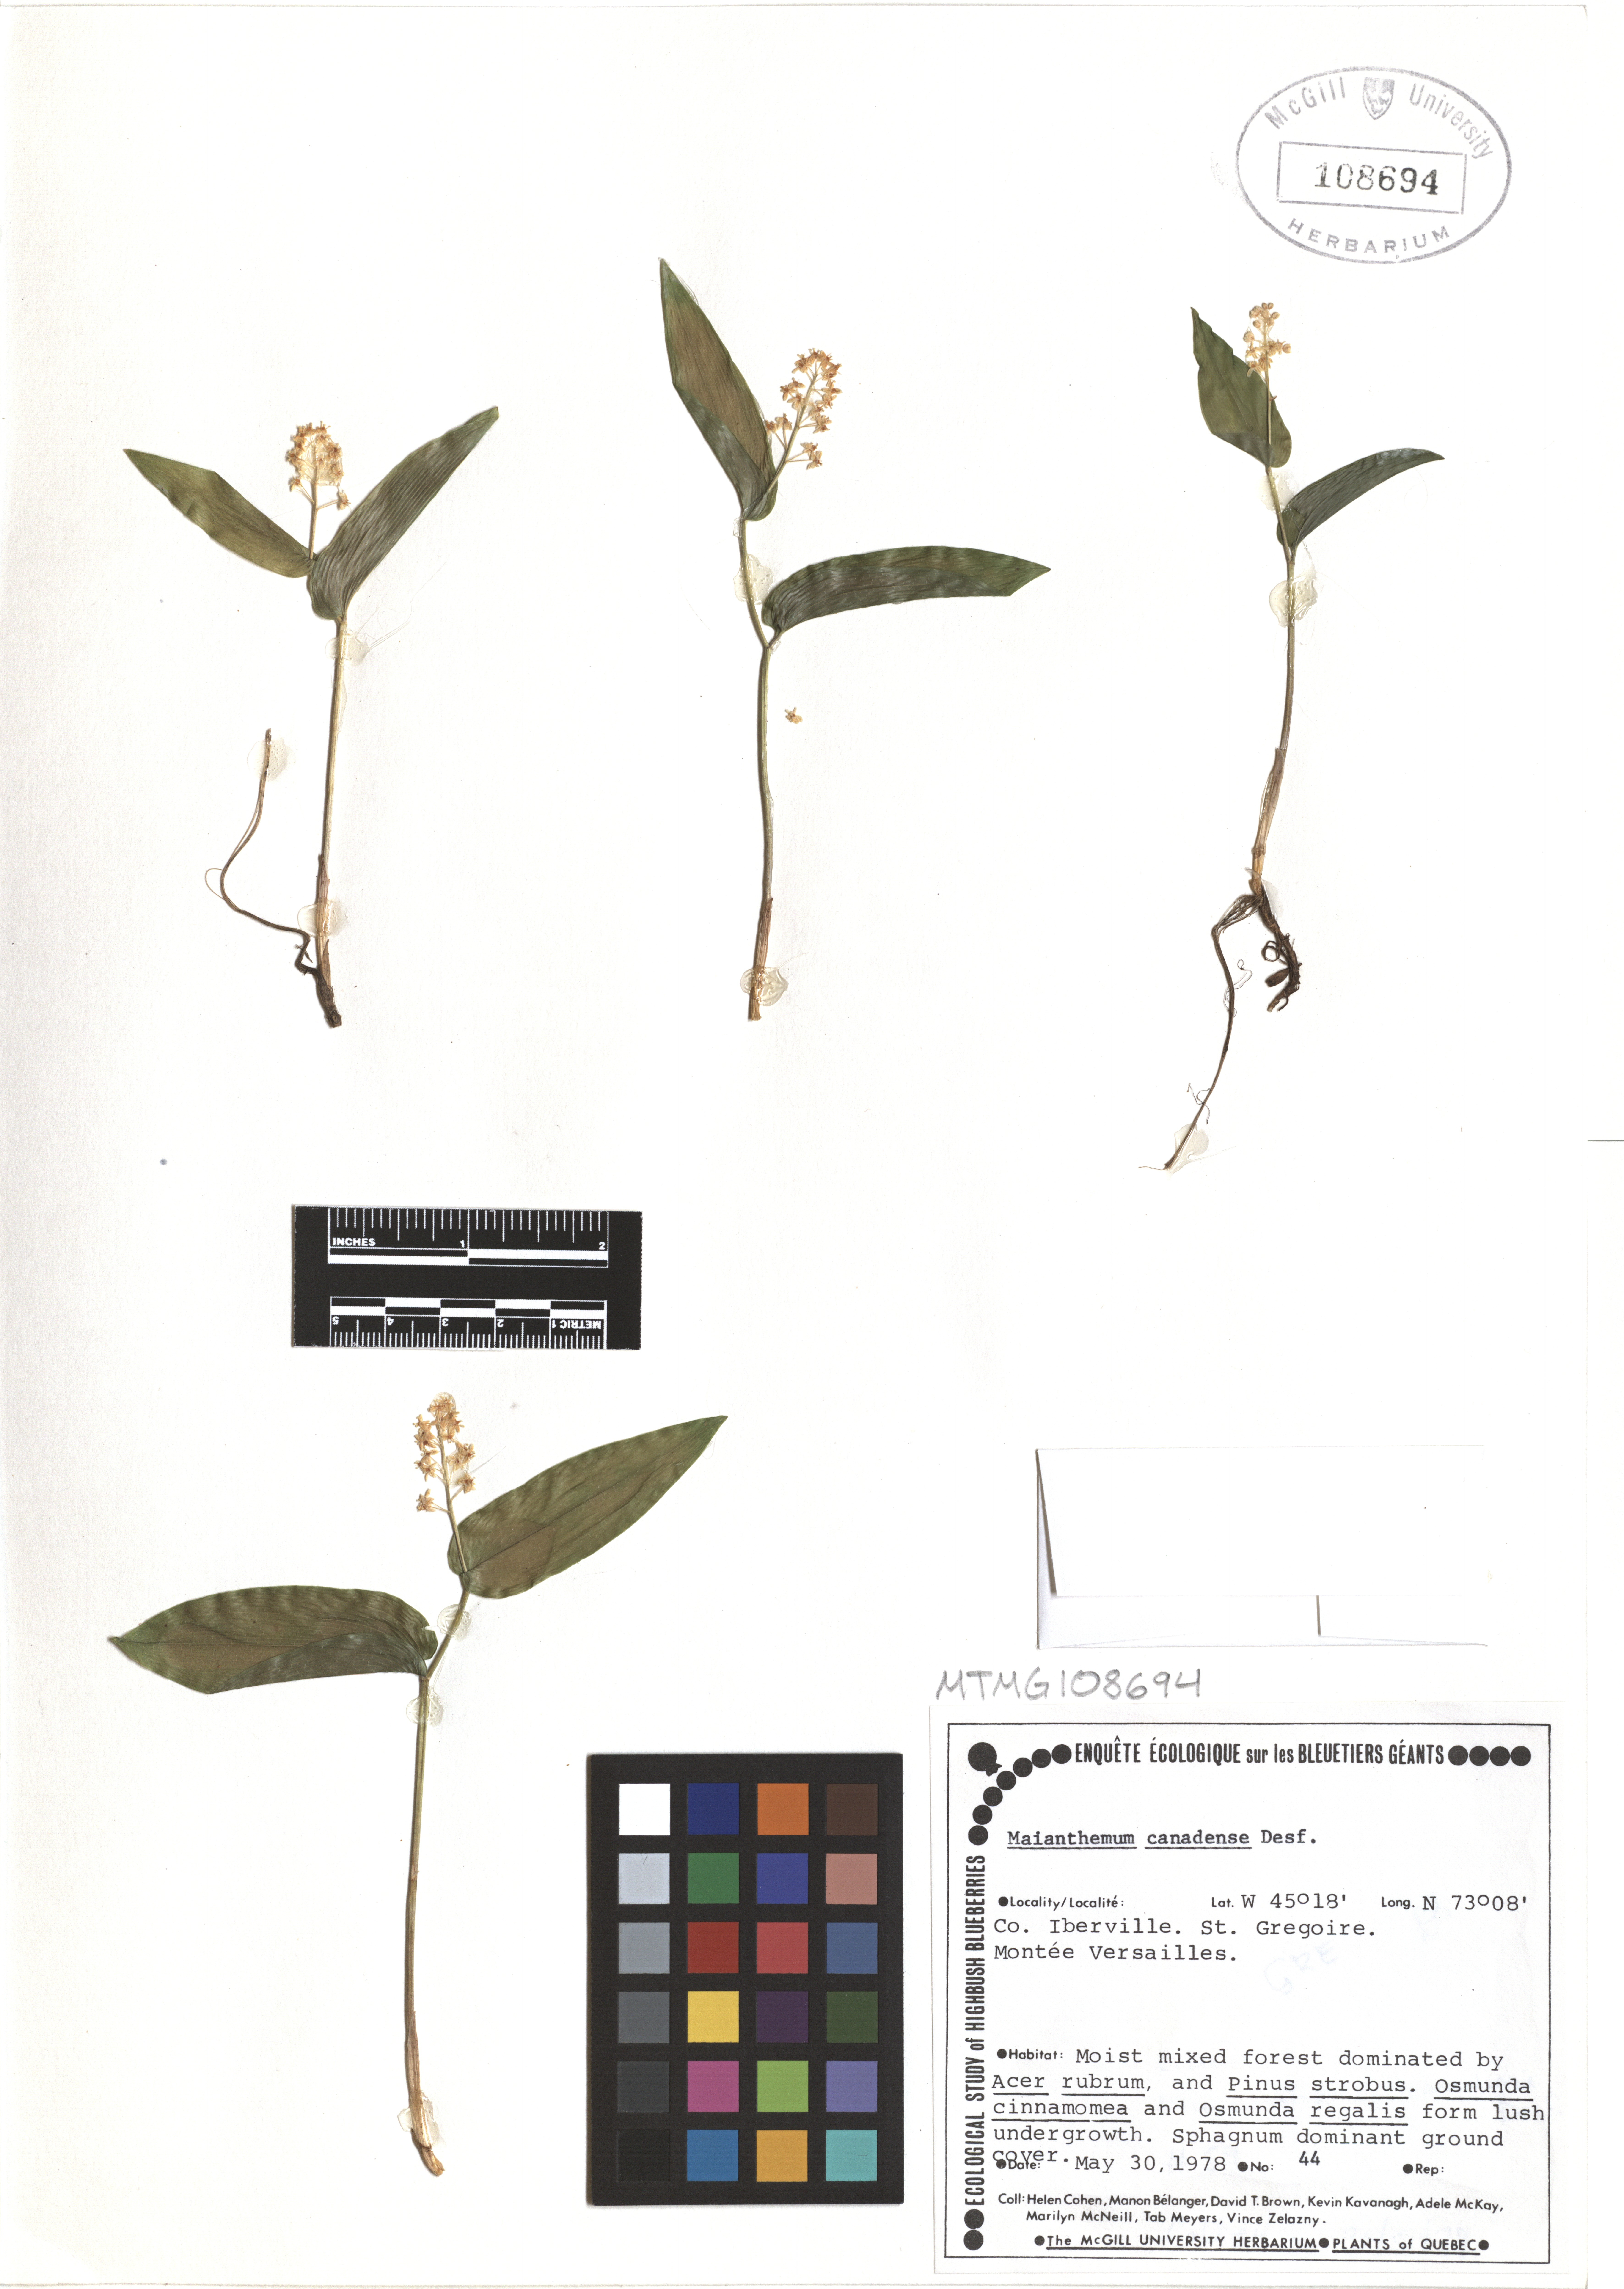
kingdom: Plantae
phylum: Tracheophyta
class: Liliopsida
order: Asparagales
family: Asparagaceae
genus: Maianthemum
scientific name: Maianthemum canadense
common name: False lily-of-the-valley
